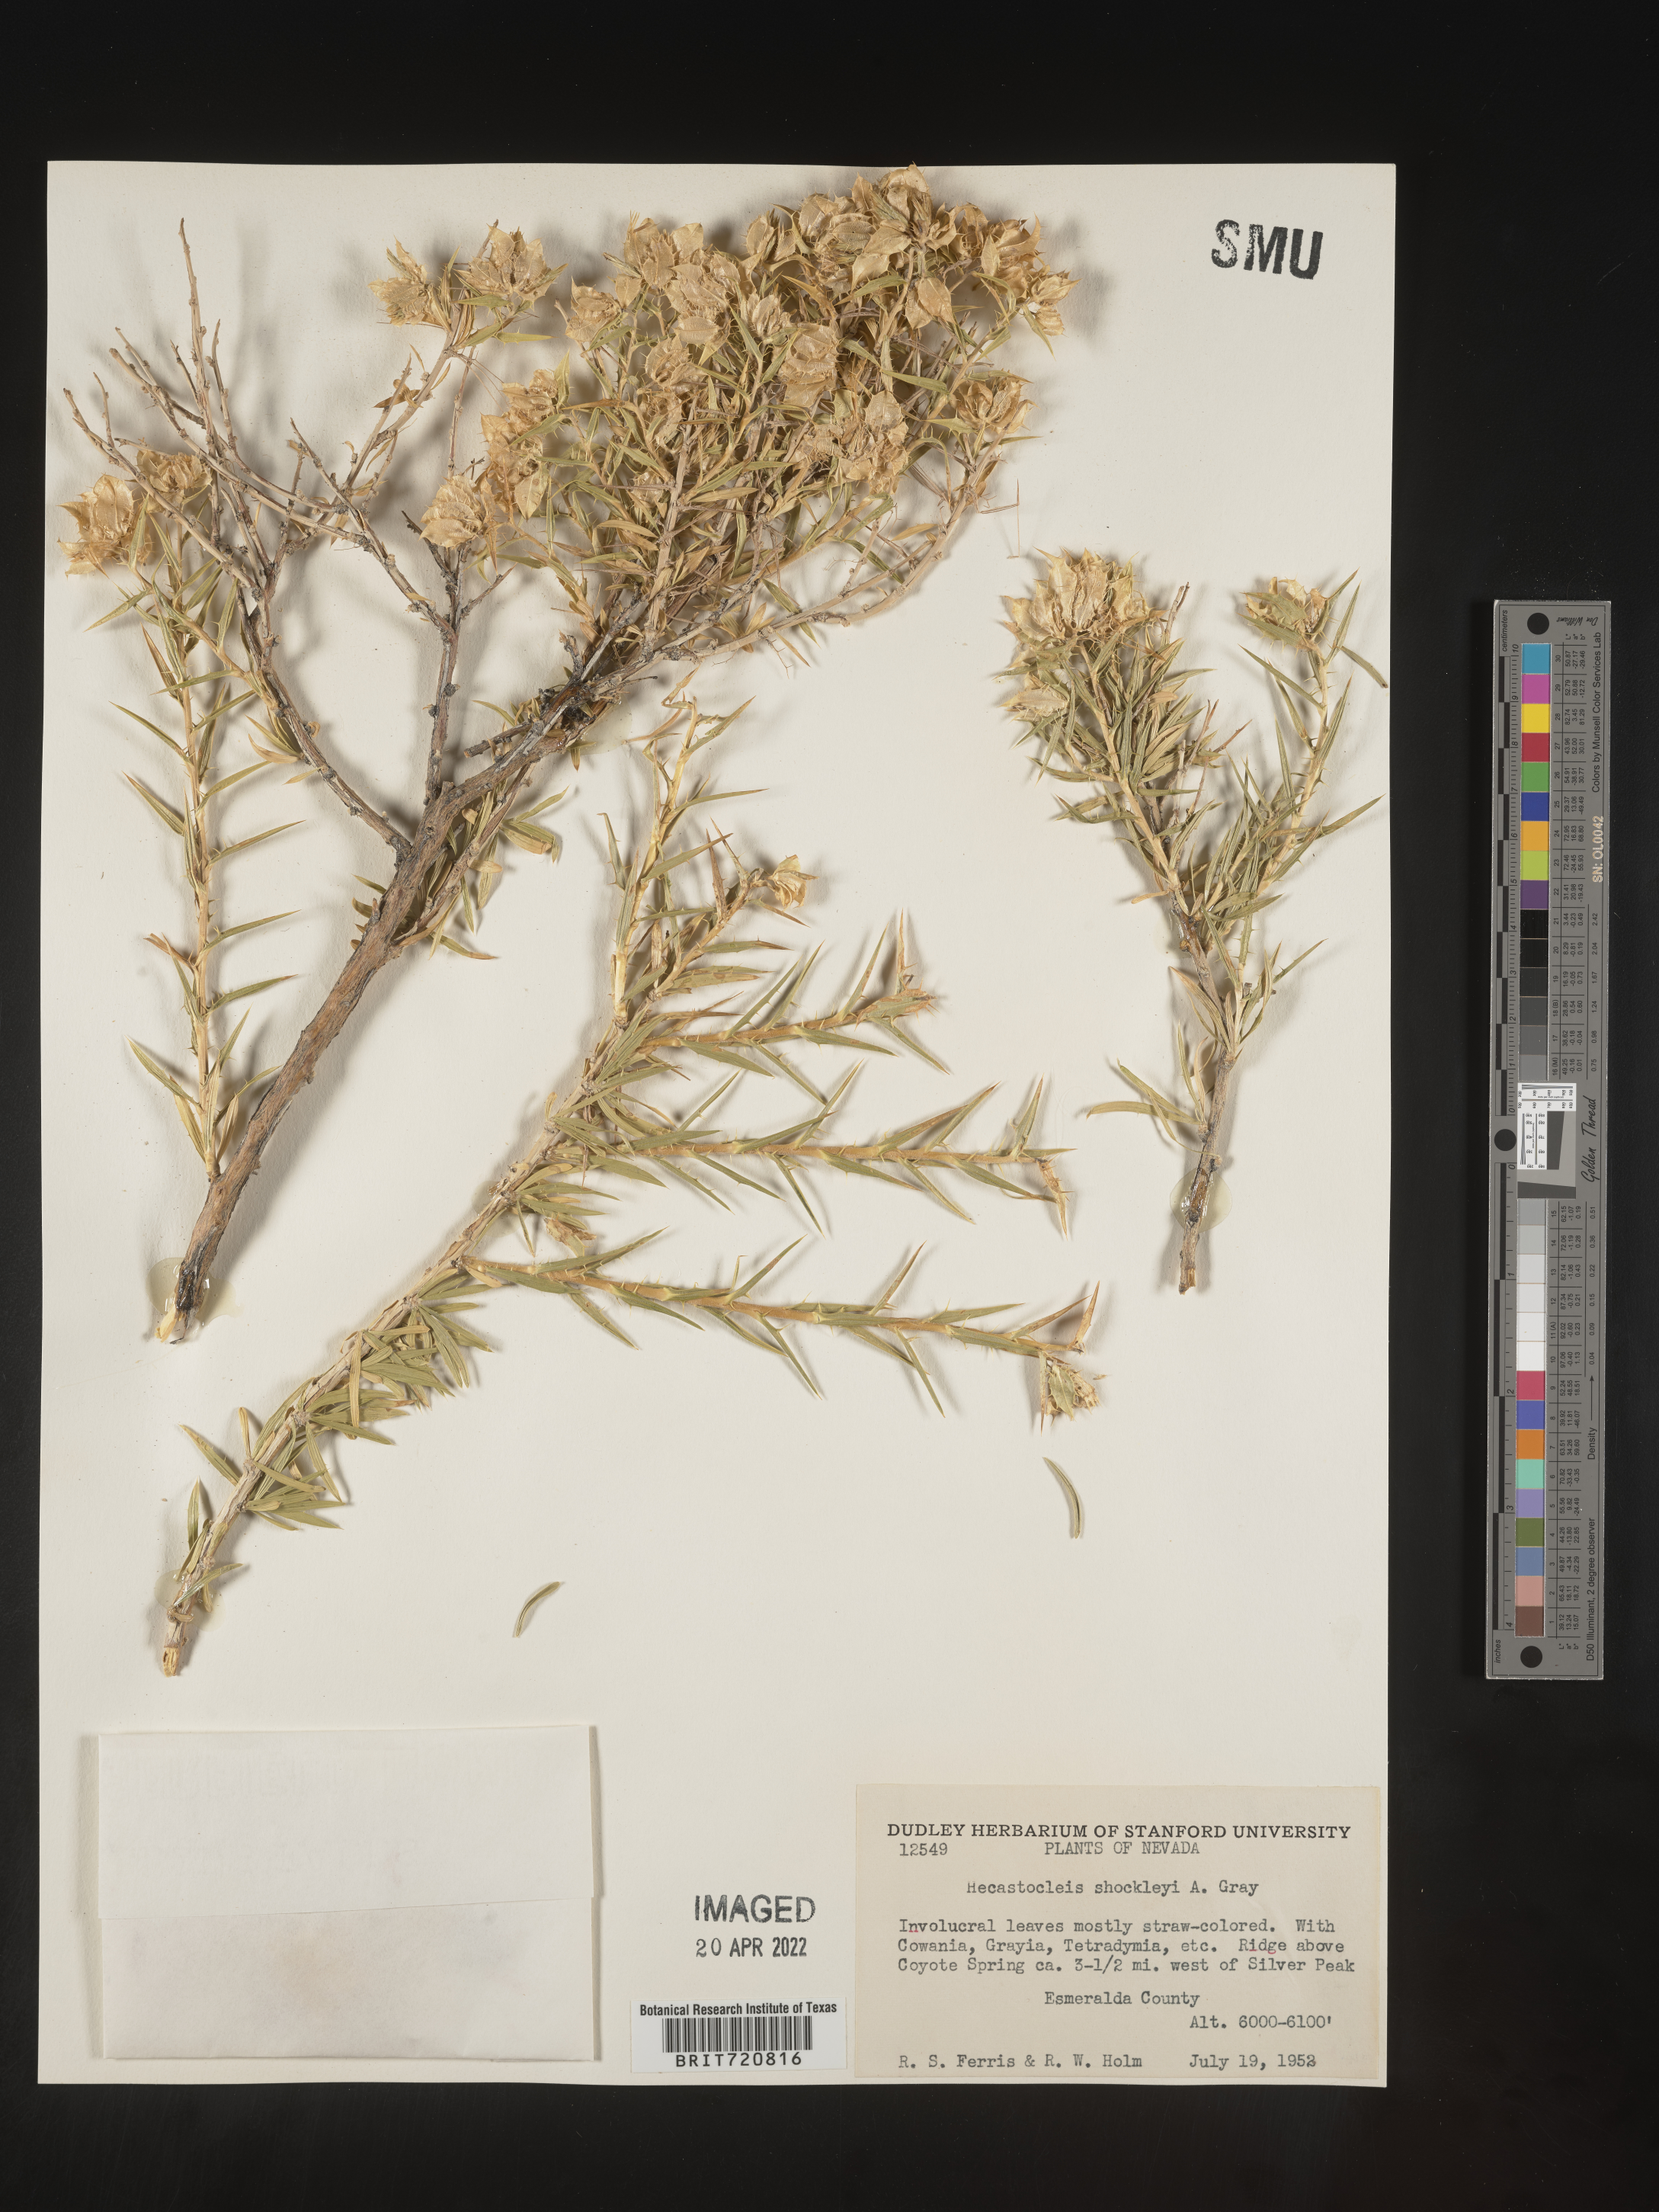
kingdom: Plantae
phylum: Tracheophyta
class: Magnoliopsida
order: Asterales
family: Asteraceae
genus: Hecastocleis
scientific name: Hecastocleis
